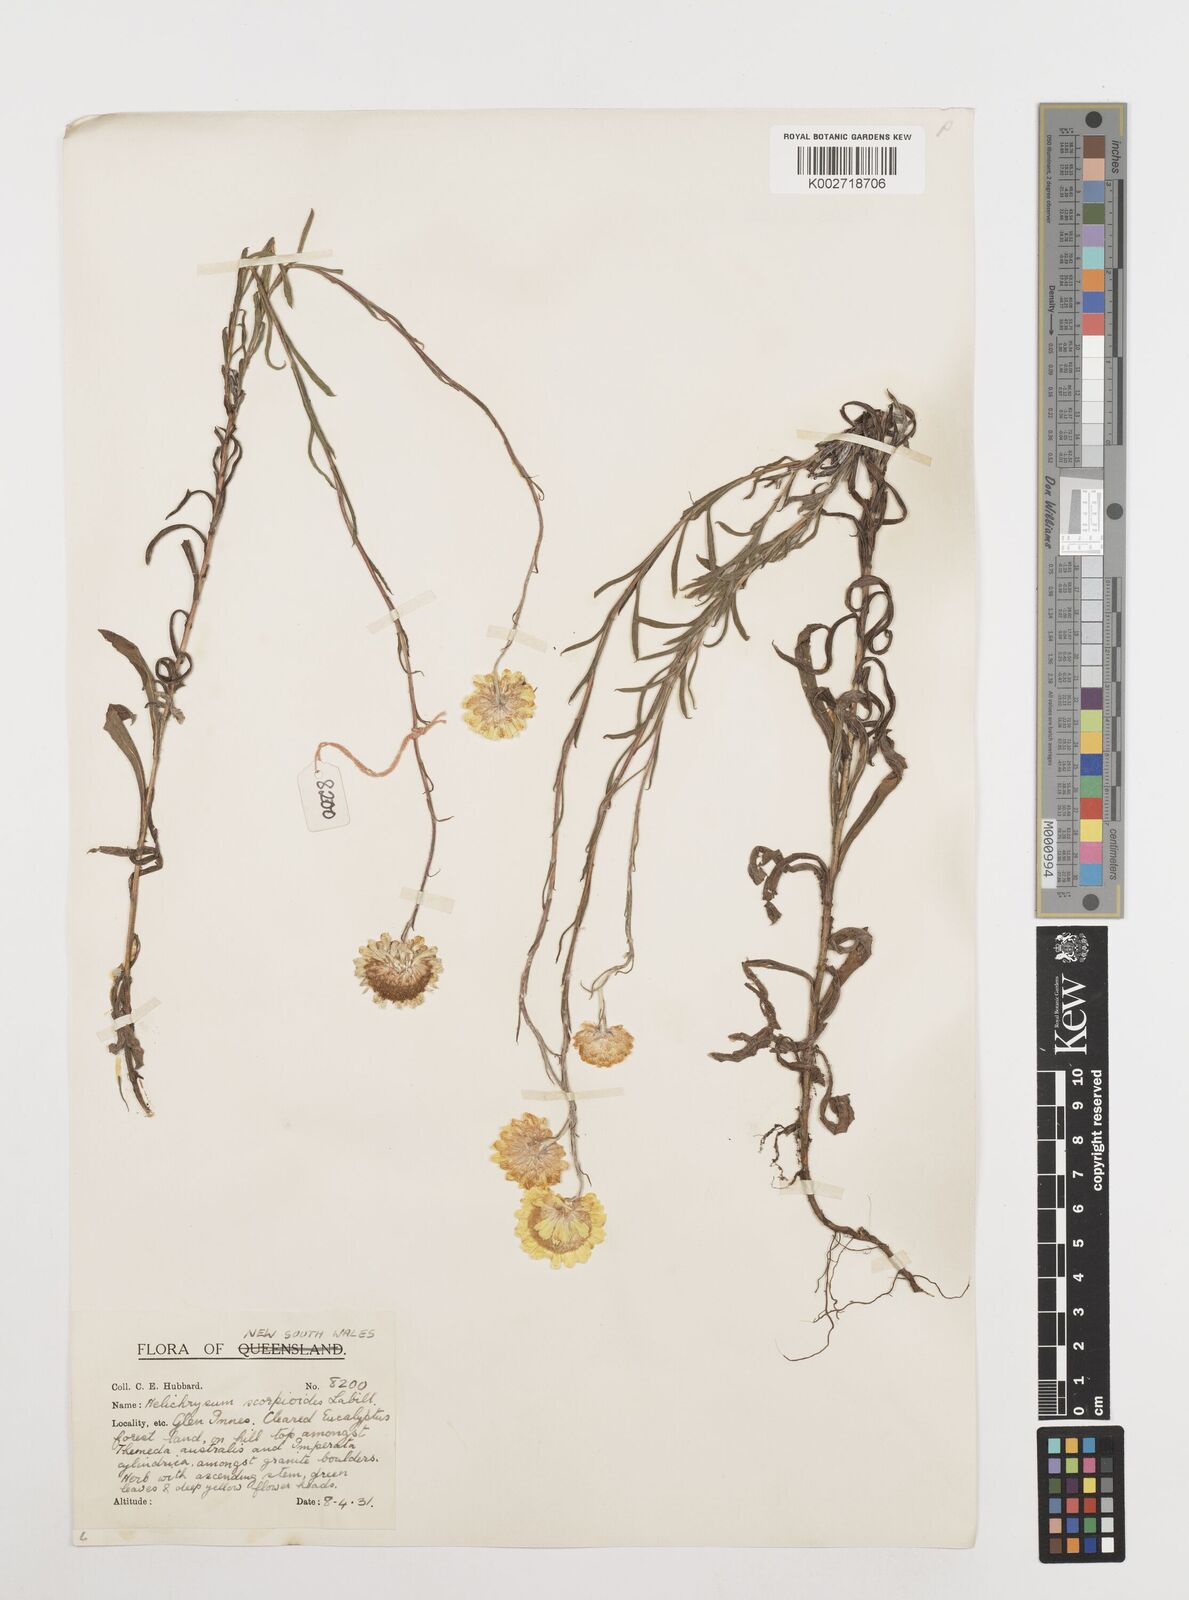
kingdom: Plantae
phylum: Tracheophyta
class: Magnoliopsida
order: Asterales
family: Asteraceae
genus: Coronidium
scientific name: Coronidium scorpioides
